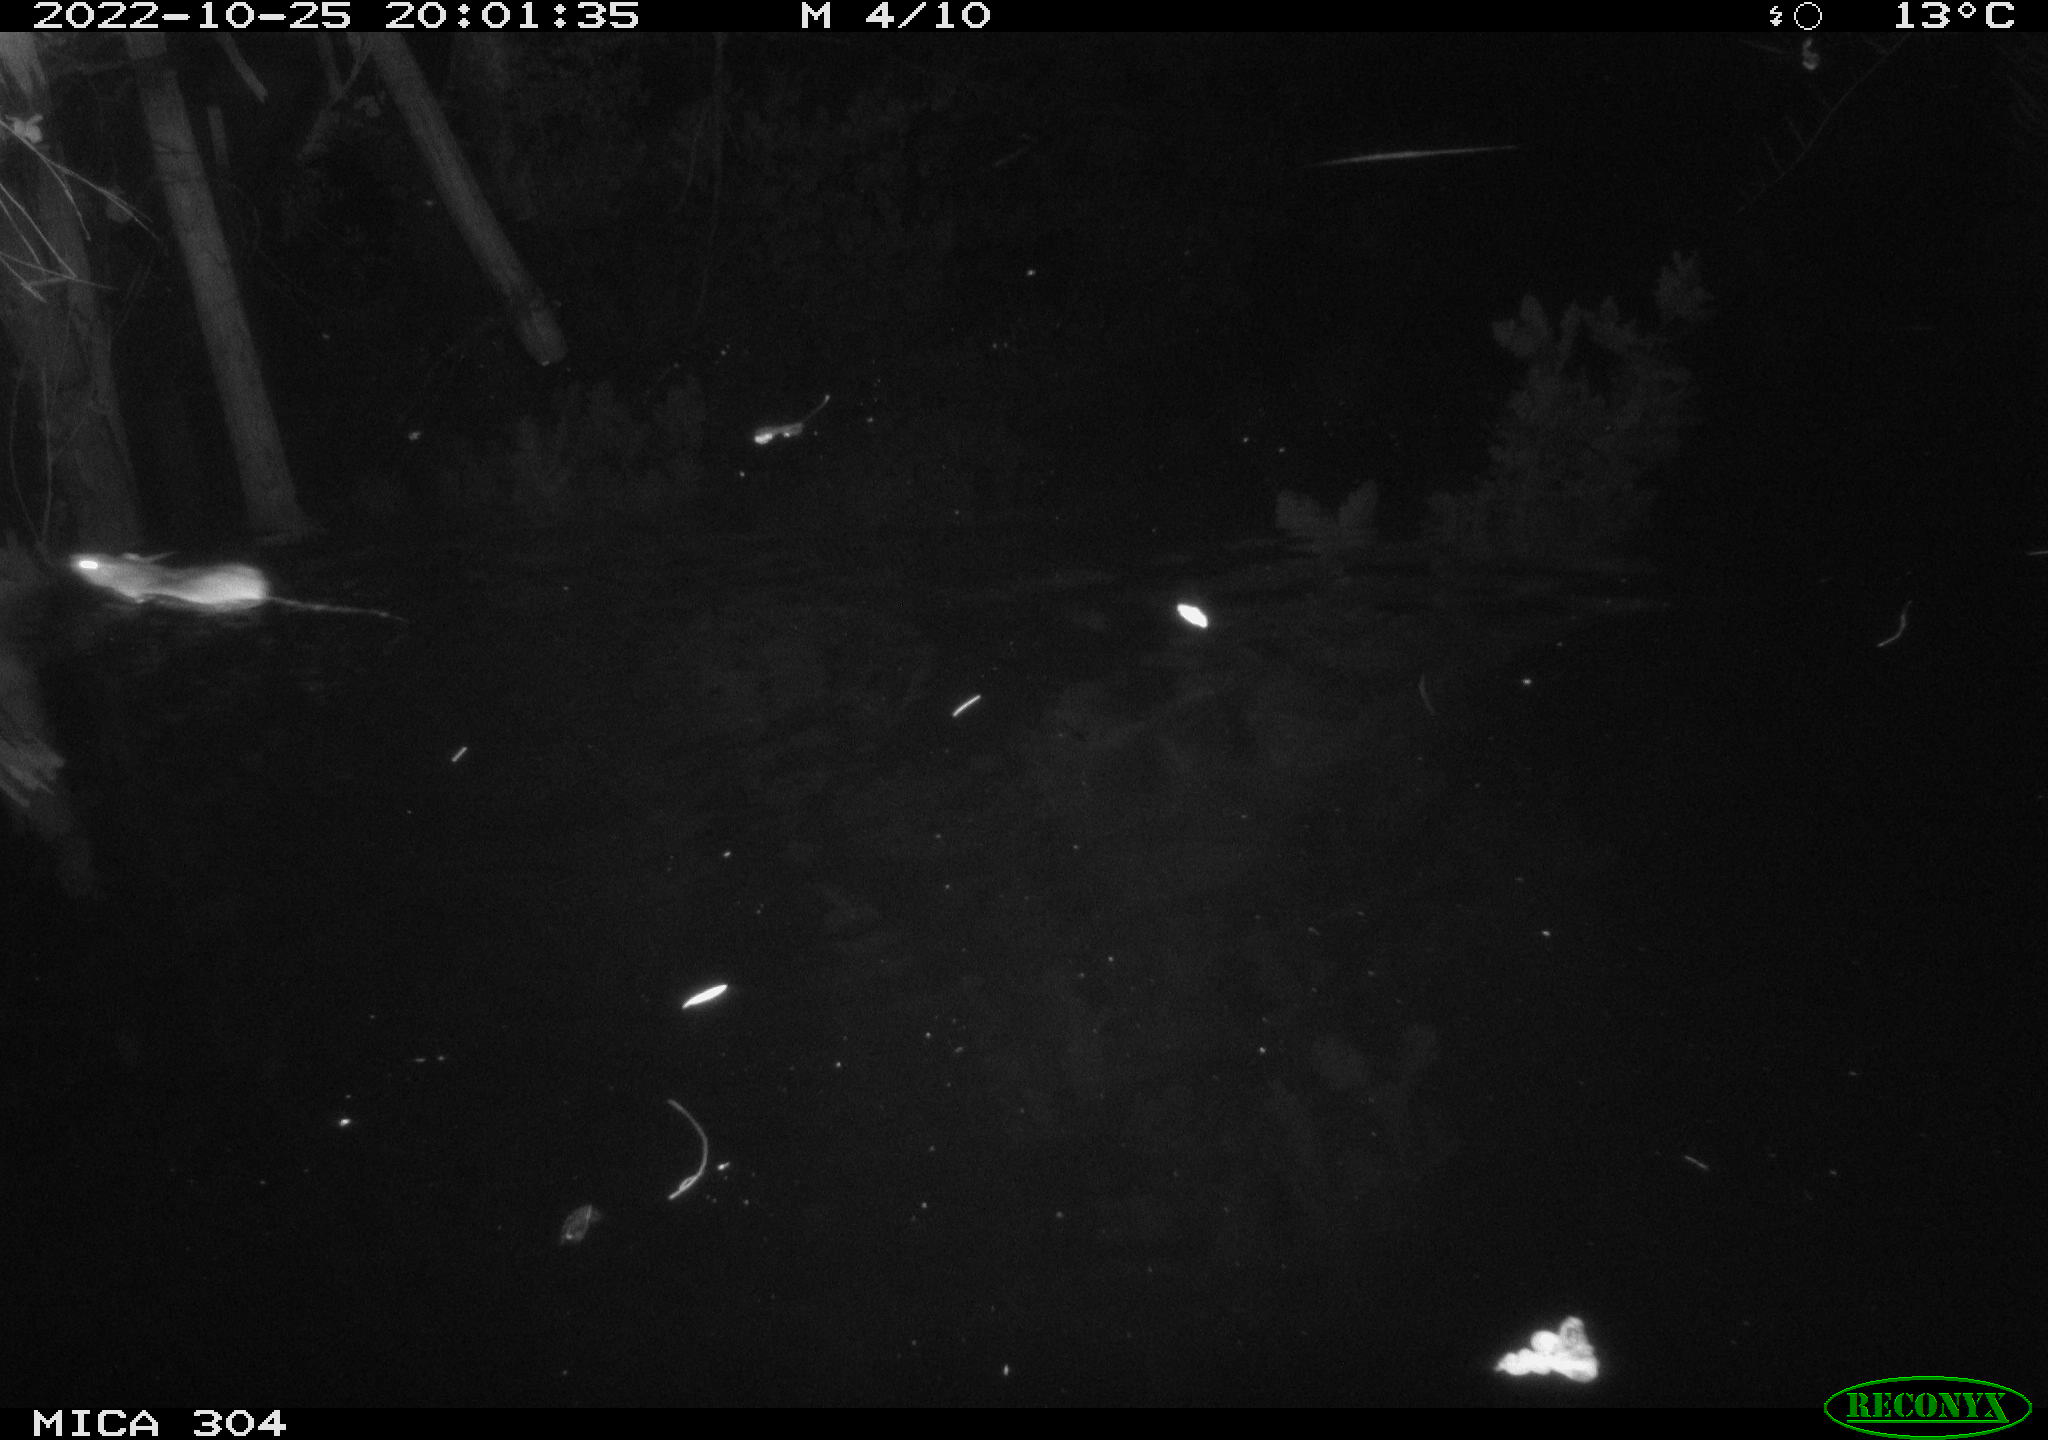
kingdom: Animalia
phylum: Chordata
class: Mammalia
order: Rodentia
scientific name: Rodentia
